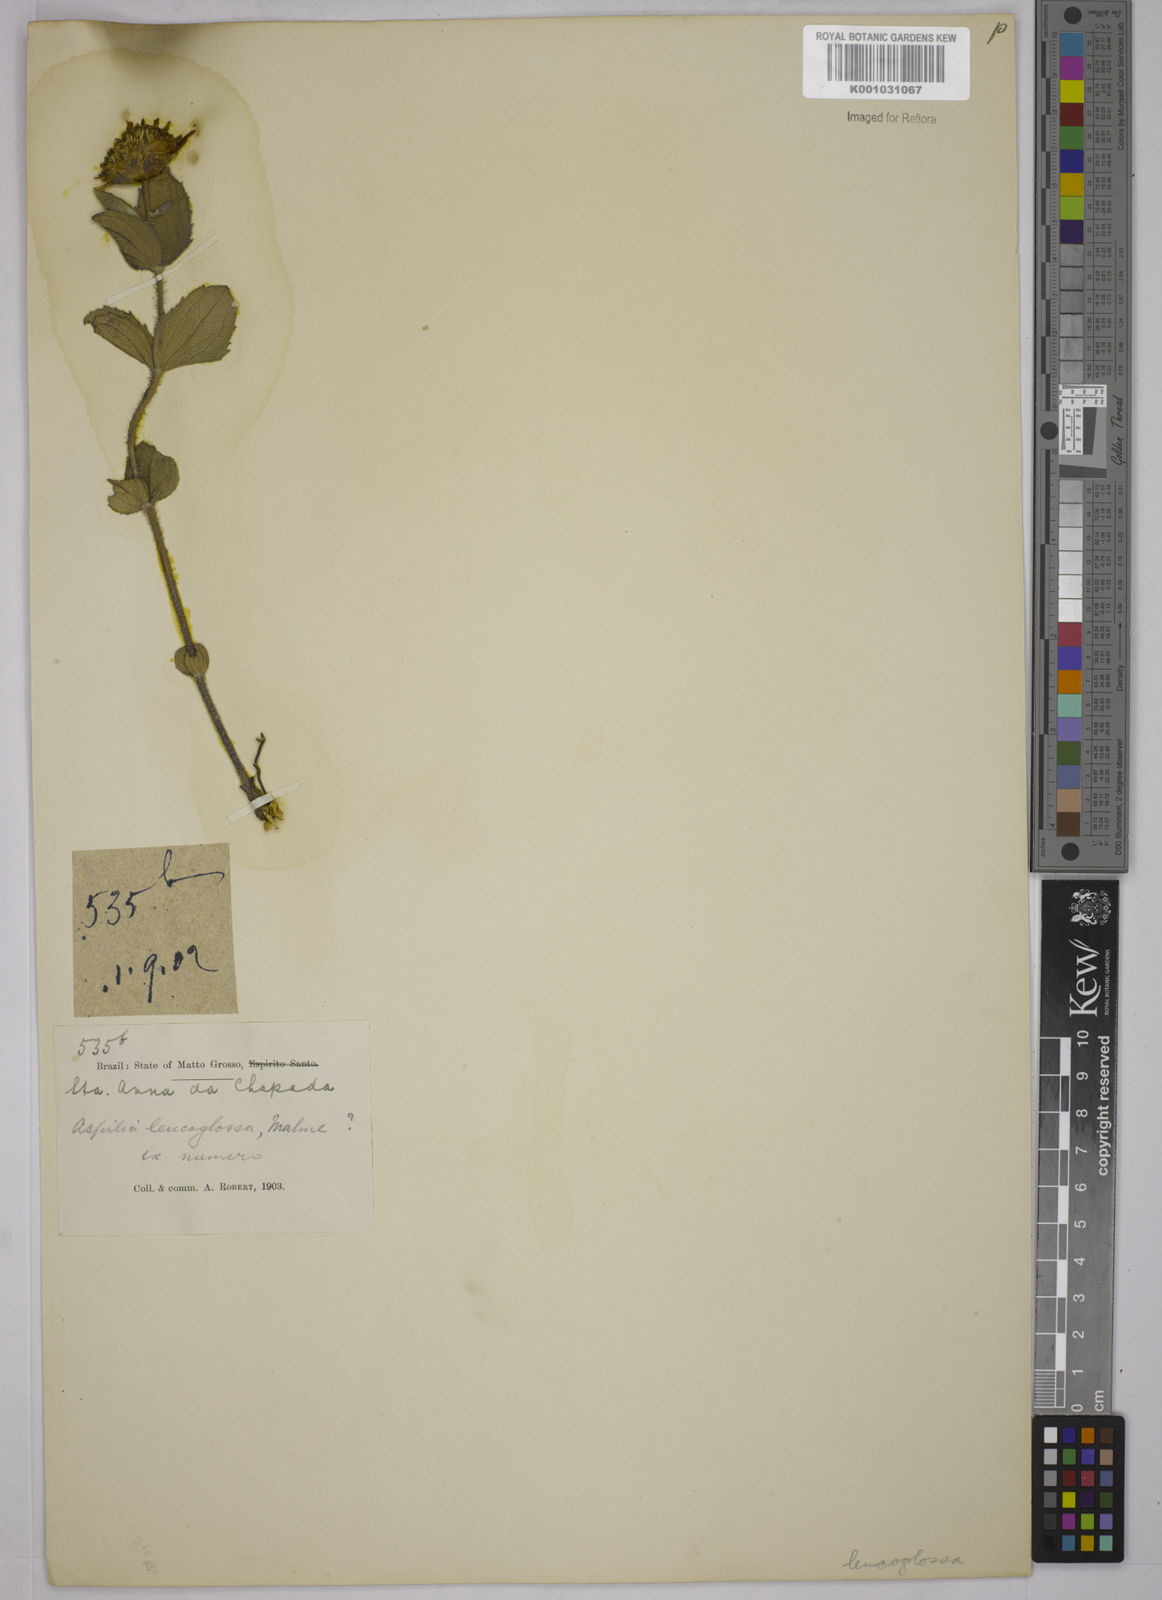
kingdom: Plantae
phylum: Tracheophyta
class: Magnoliopsida
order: Asterales
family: Asteraceae
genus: Wedelia
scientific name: Wedelia leucoglossa
